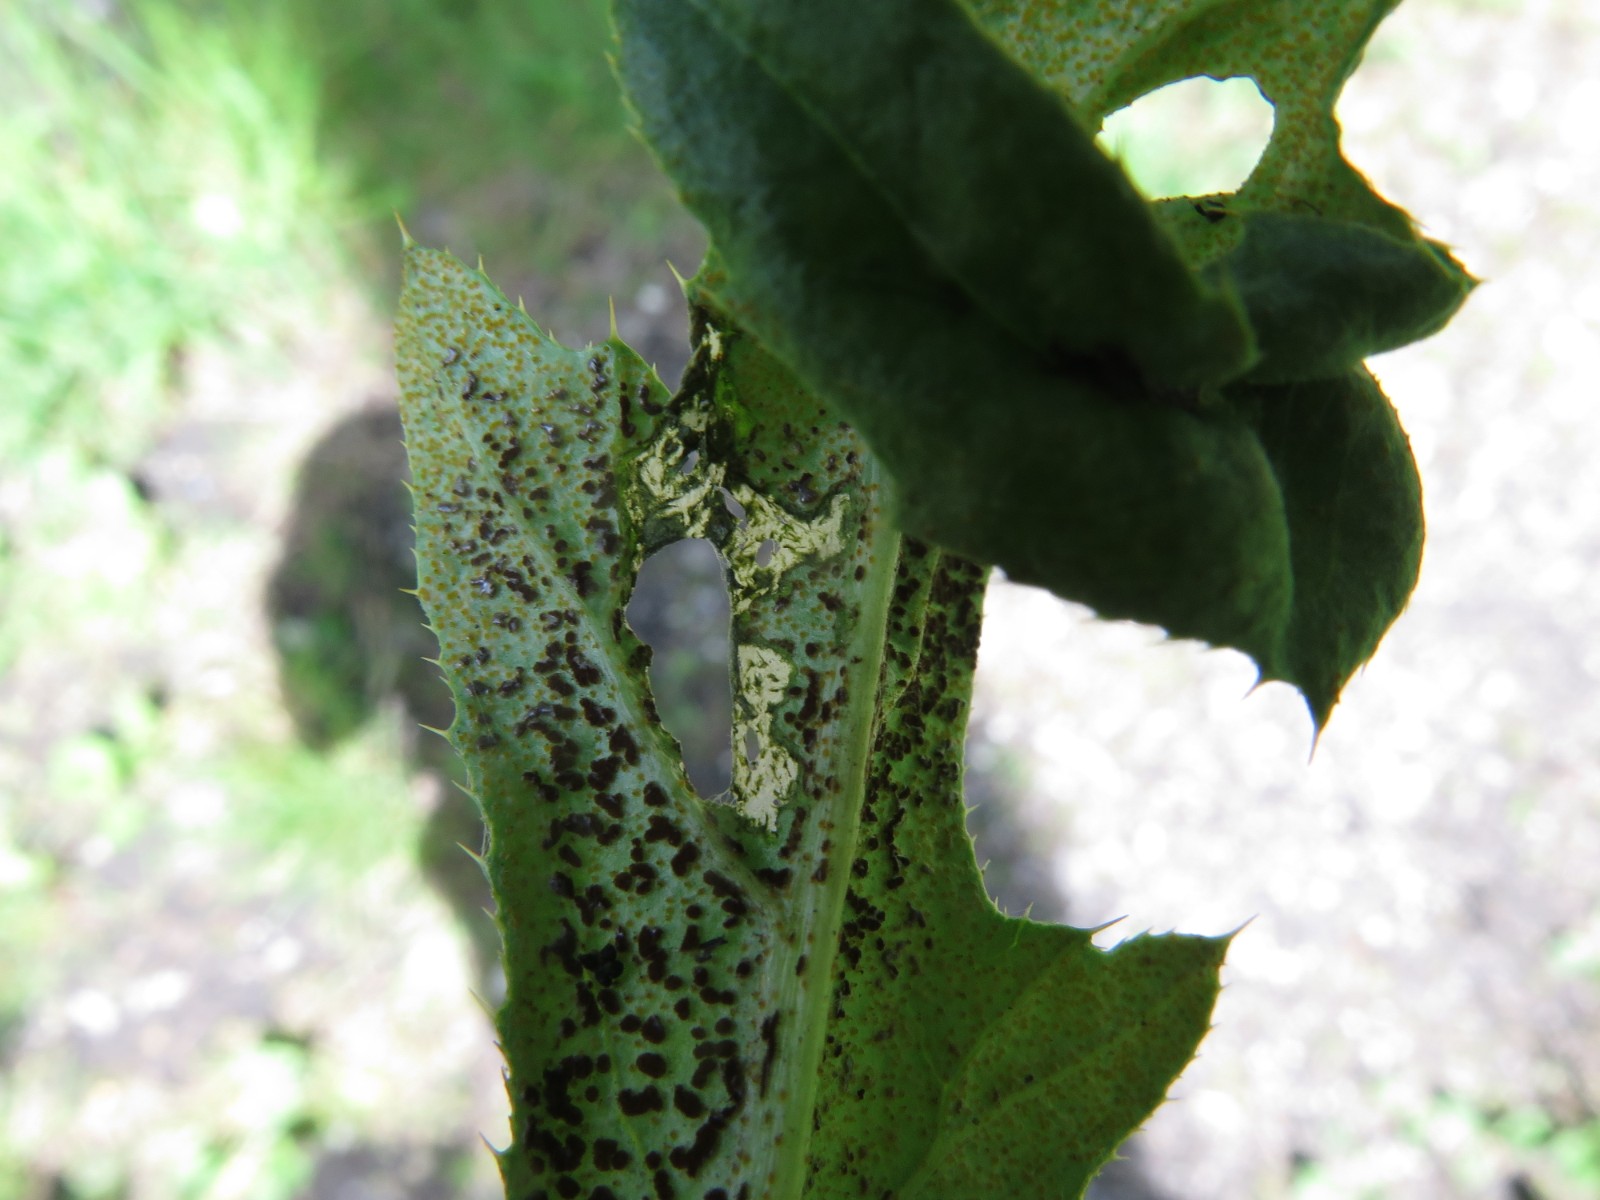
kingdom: Fungi
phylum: Basidiomycota
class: Pucciniomycetes
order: Pucciniales
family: Pucciniaceae
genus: Puccinia
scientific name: Puccinia suaveolens
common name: tidsel-tvecellerust
